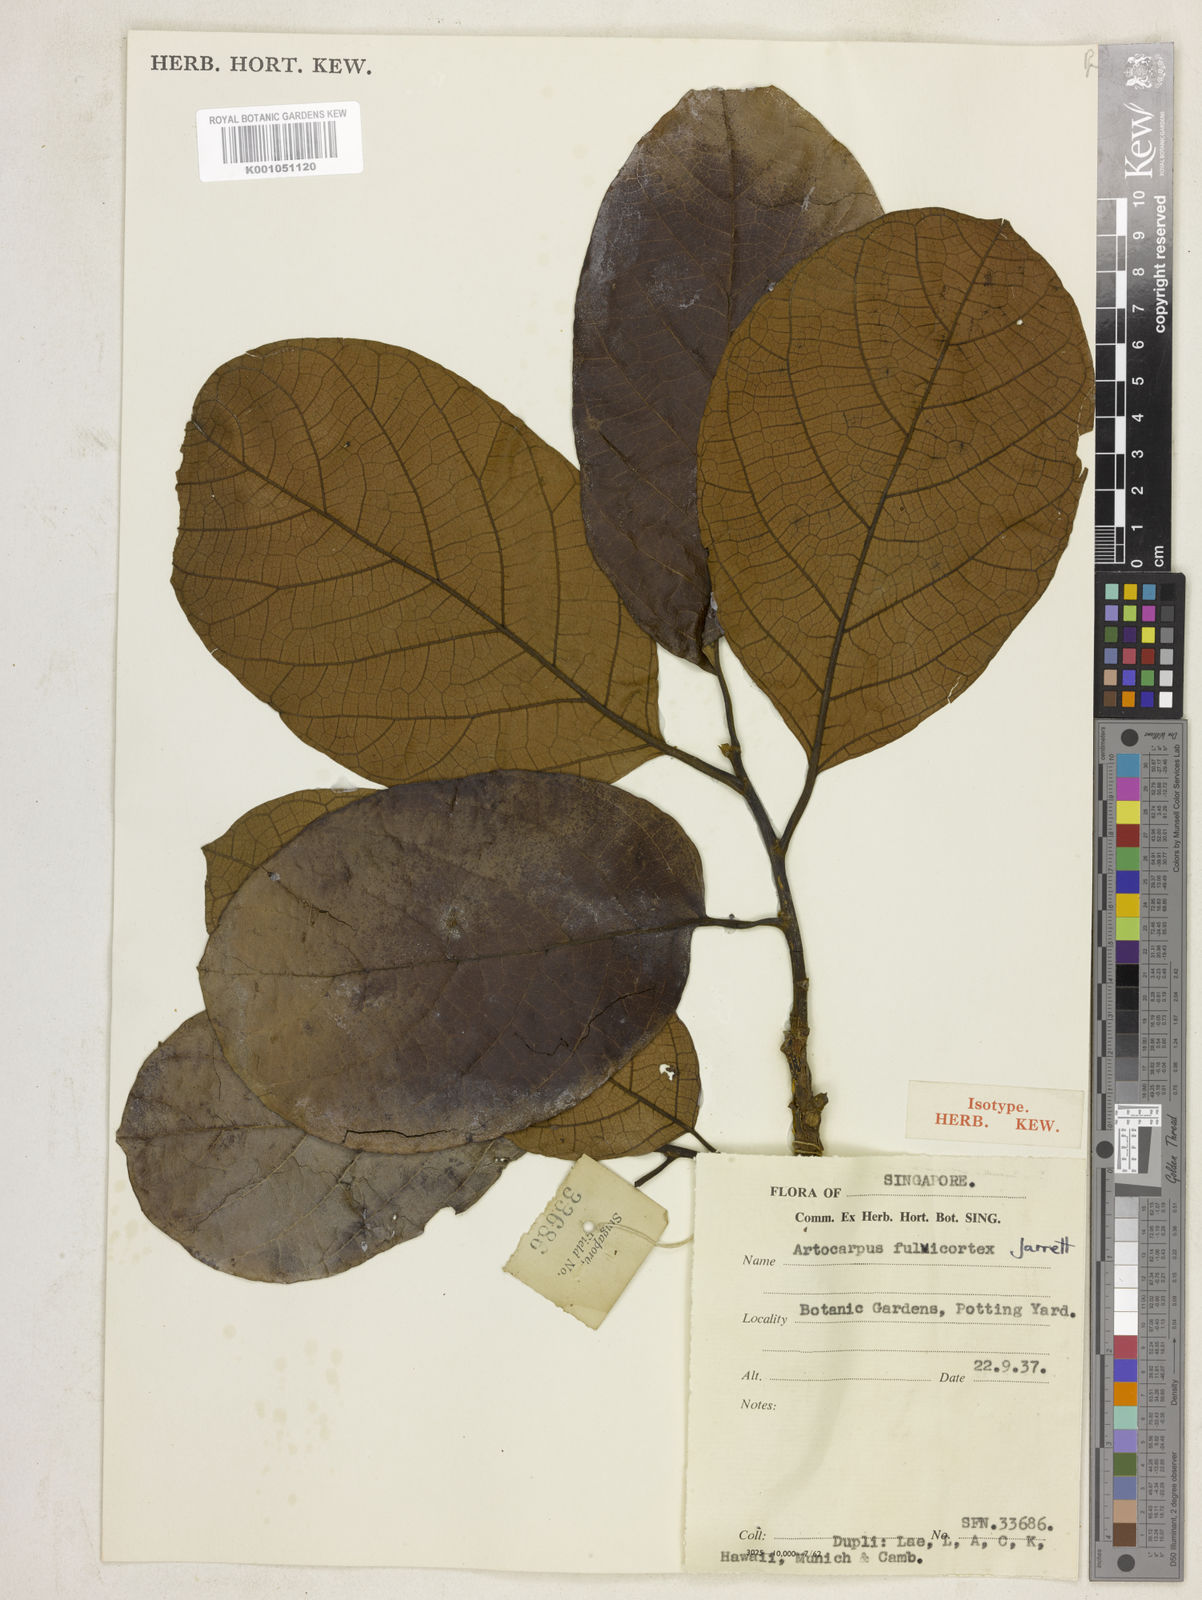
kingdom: Plantae
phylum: Tracheophyta
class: Magnoliopsida
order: Rosales
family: Moraceae
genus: Artocarpus
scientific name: Artocarpus fulvicortex
